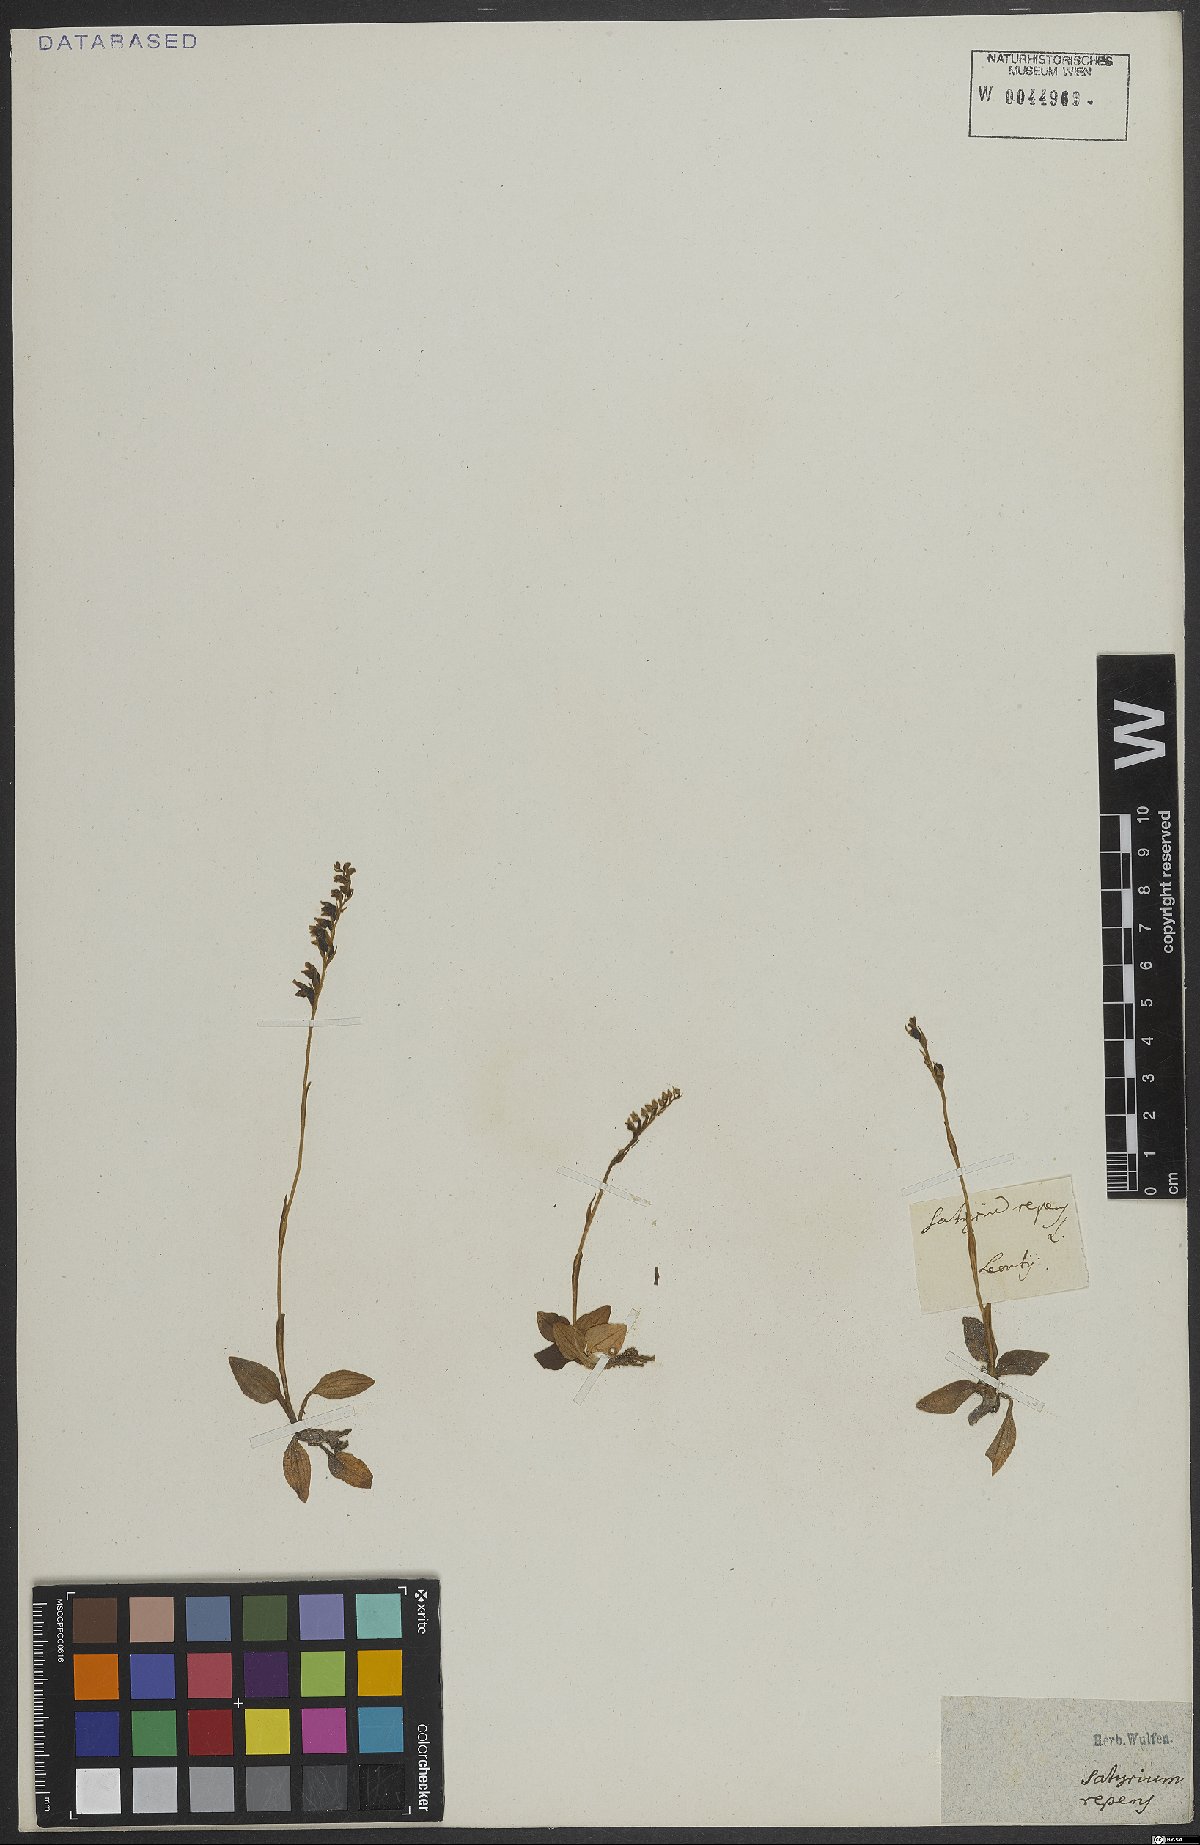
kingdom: Plantae
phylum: Tracheophyta
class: Liliopsida
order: Asparagales
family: Orchidaceae
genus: Goodyera
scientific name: Goodyera repens
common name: Creeping lady's-tresses
